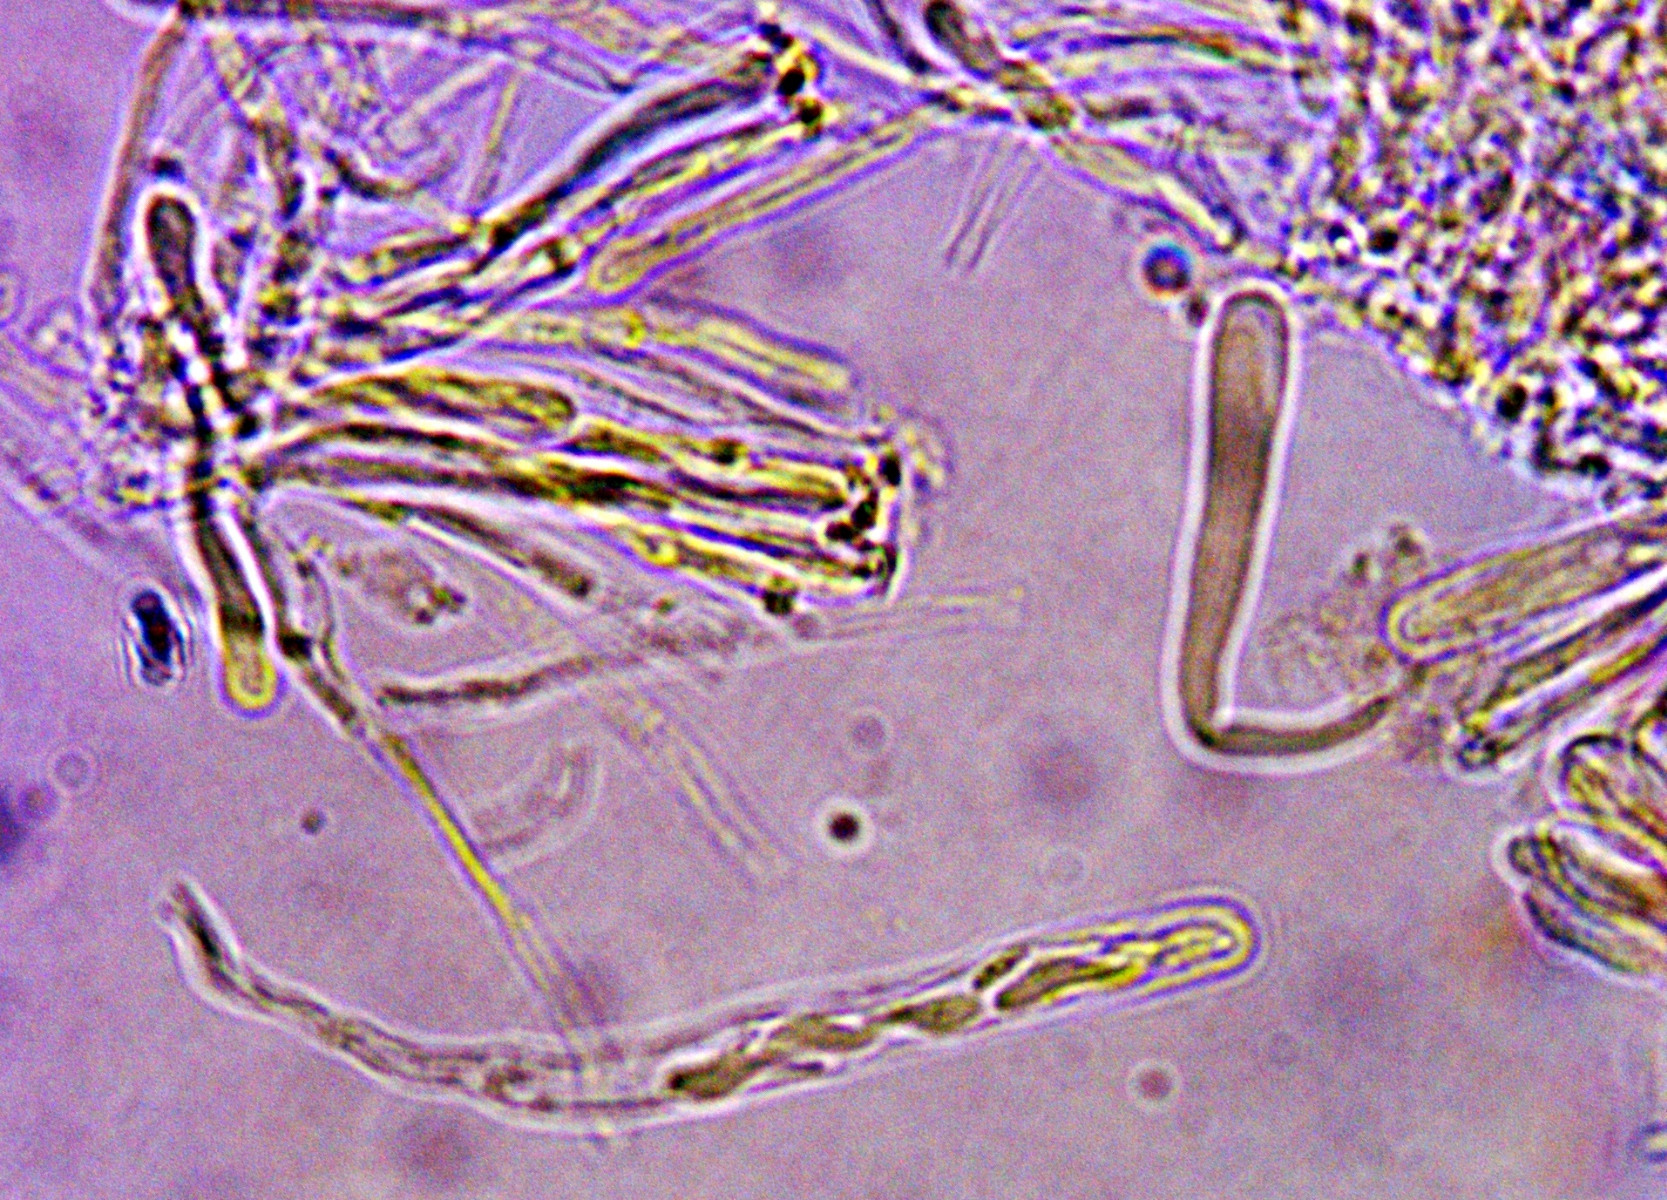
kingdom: Fungi
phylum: Ascomycota
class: Orbiliomycetes
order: Orbiliales
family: Orbiliaceae
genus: Orbilia
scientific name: Orbilia comma
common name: komma-voksskive
